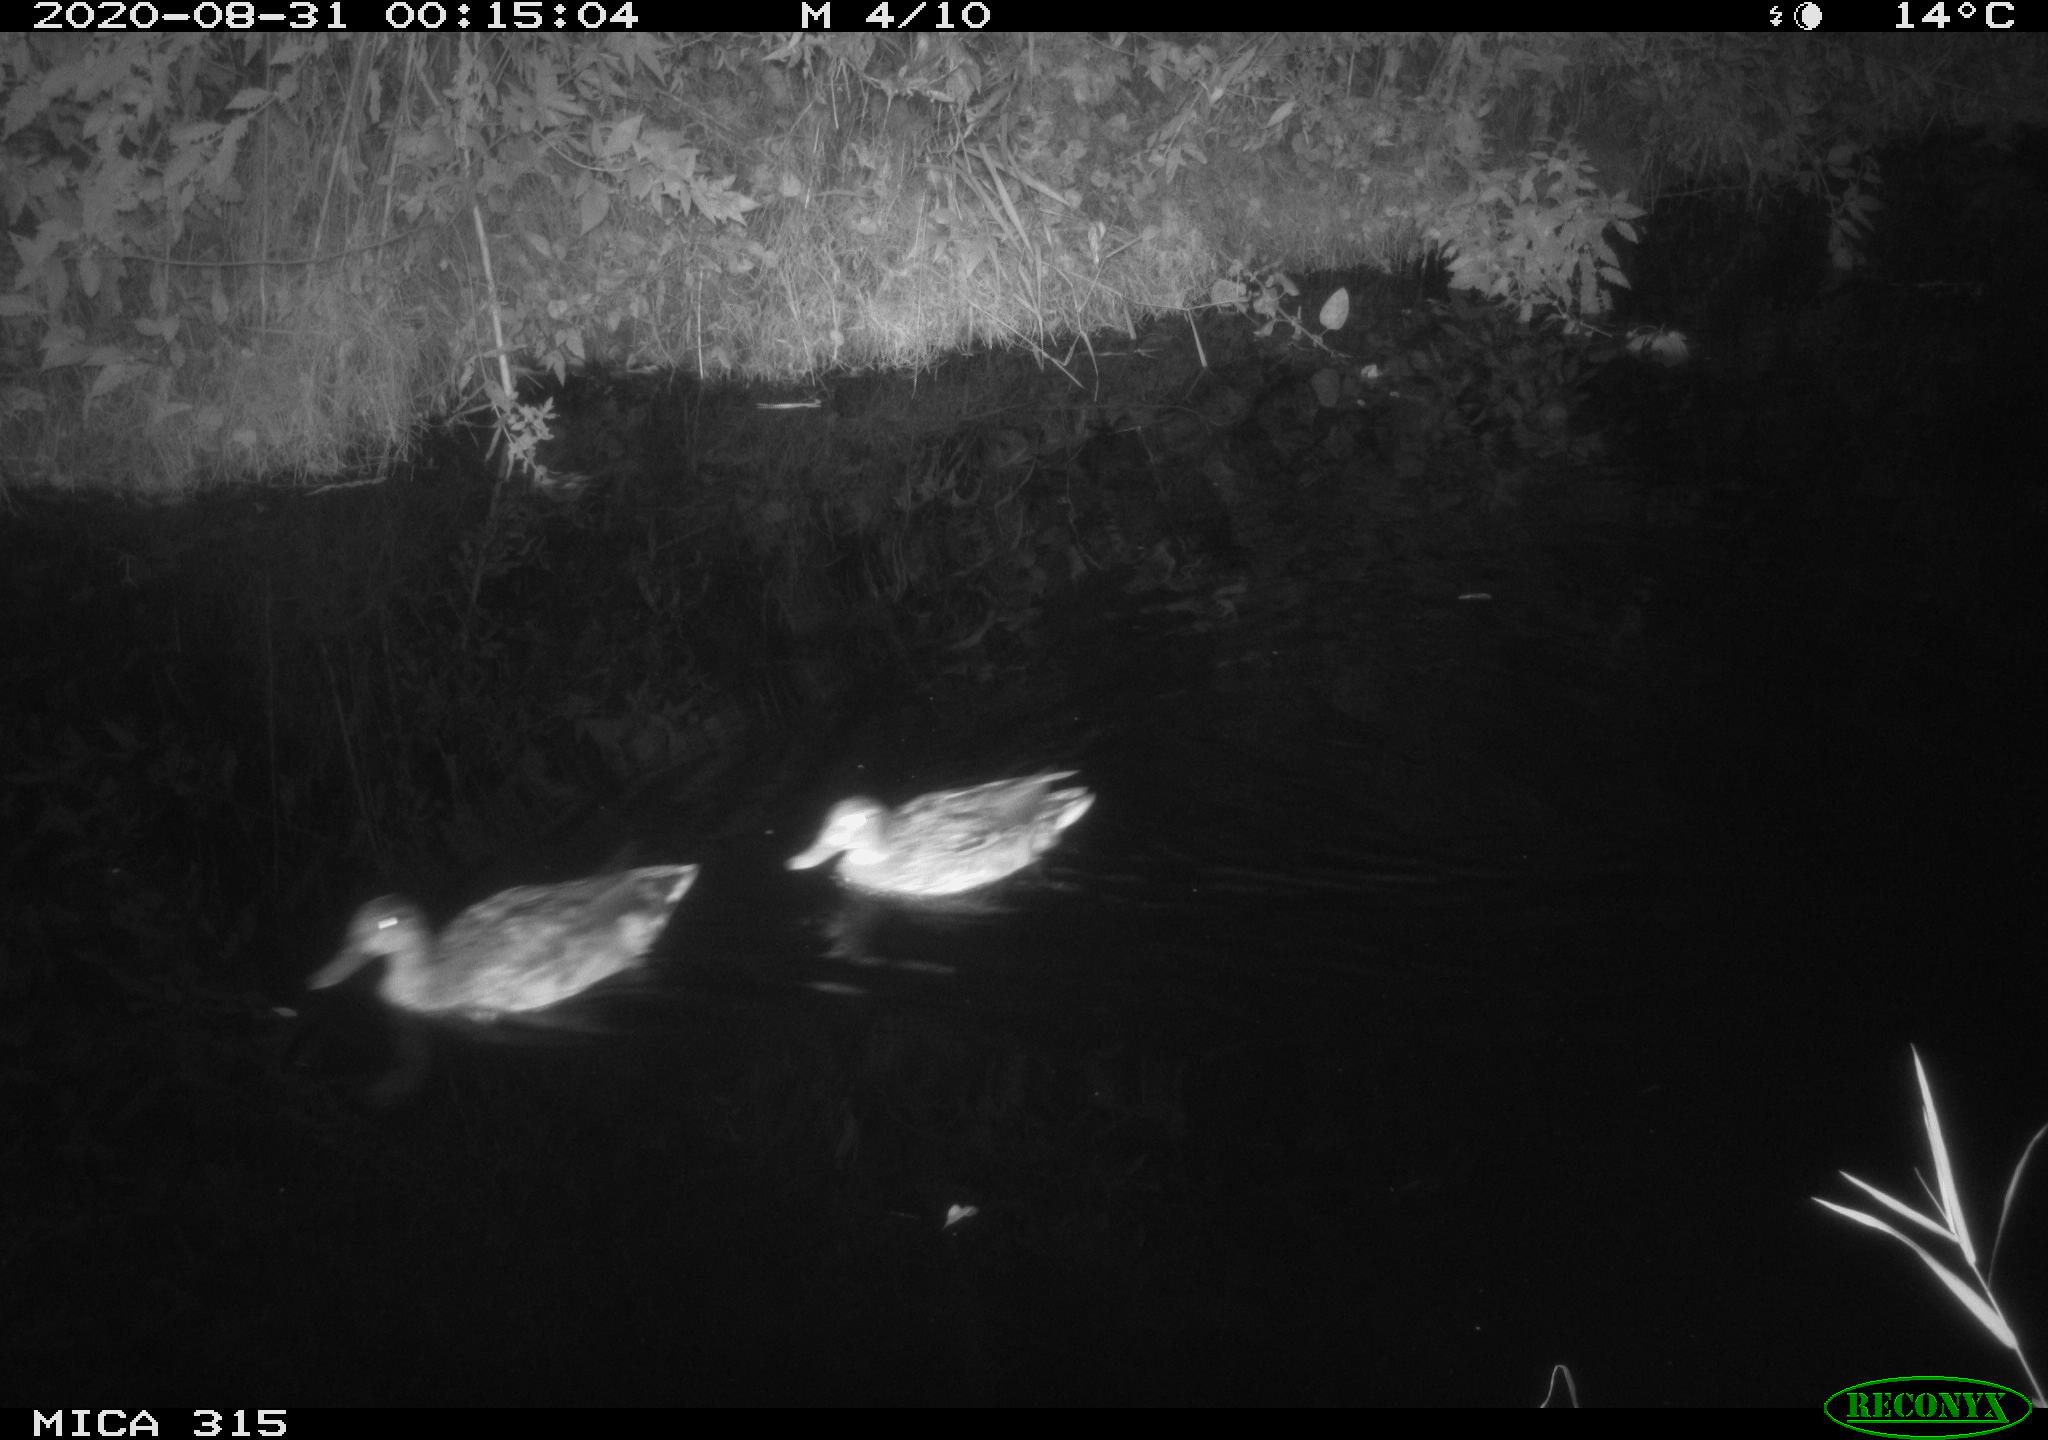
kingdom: Animalia
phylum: Chordata
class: Aves
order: Anseriformes
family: Anatidae
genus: Anas
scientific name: Anas platyrhynchos
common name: Mallard
